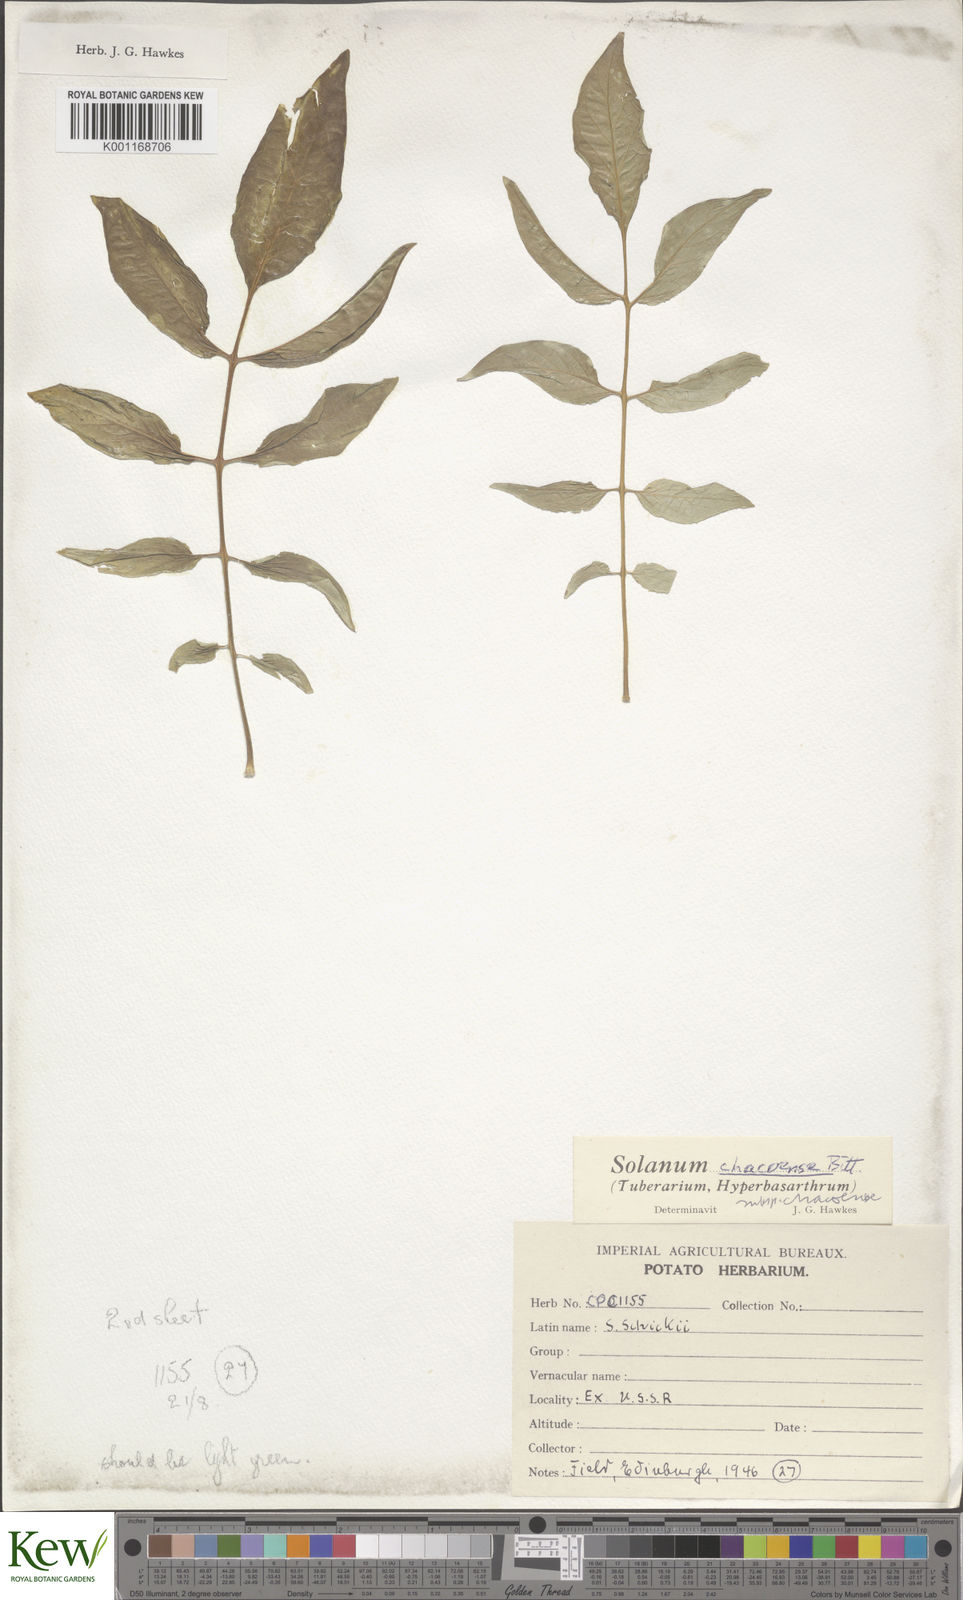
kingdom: Plantae
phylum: Tracheophyta
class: Magnoliopsida
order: Solanales
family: Solanaceae
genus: Solanum
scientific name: Solanum chacoense
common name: Chaco potato
